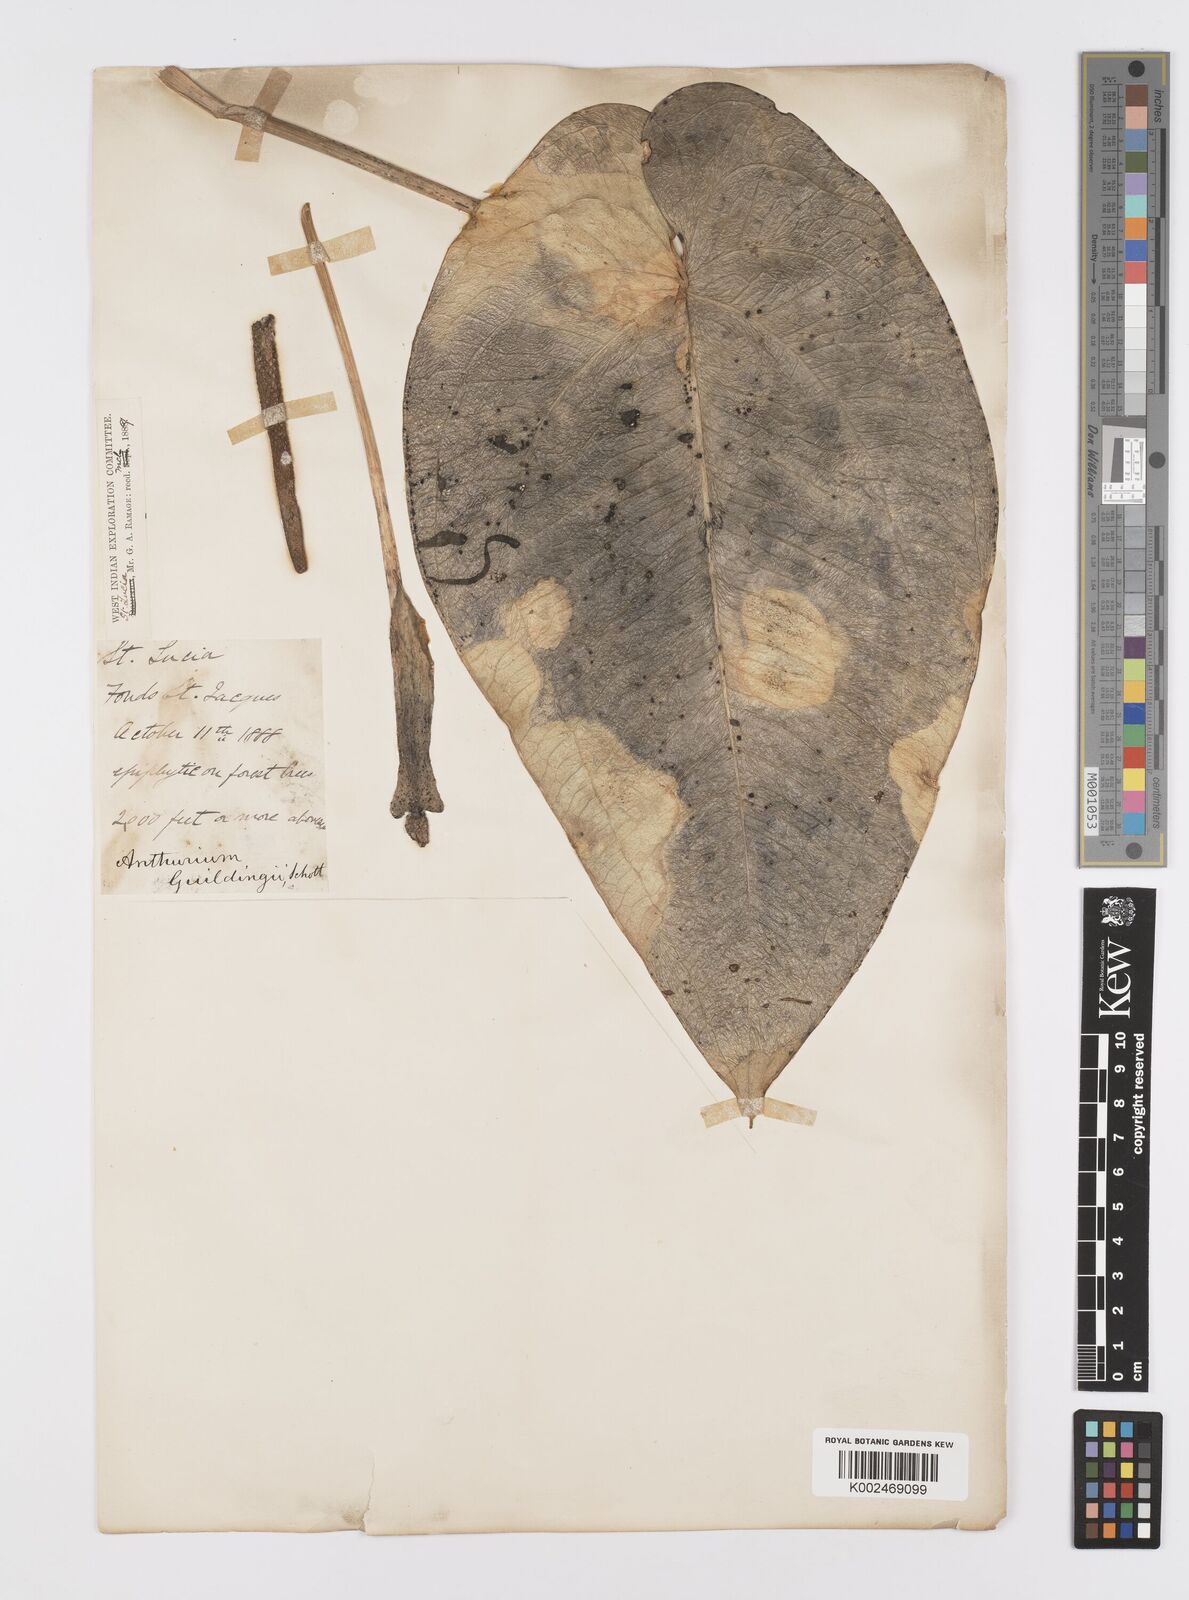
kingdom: Plantae
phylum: Tracheophyta
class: Liliopsida
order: Alismatales
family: Araceae
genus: Anthurium
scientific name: Anthurium cordatum
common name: Monkey tail
